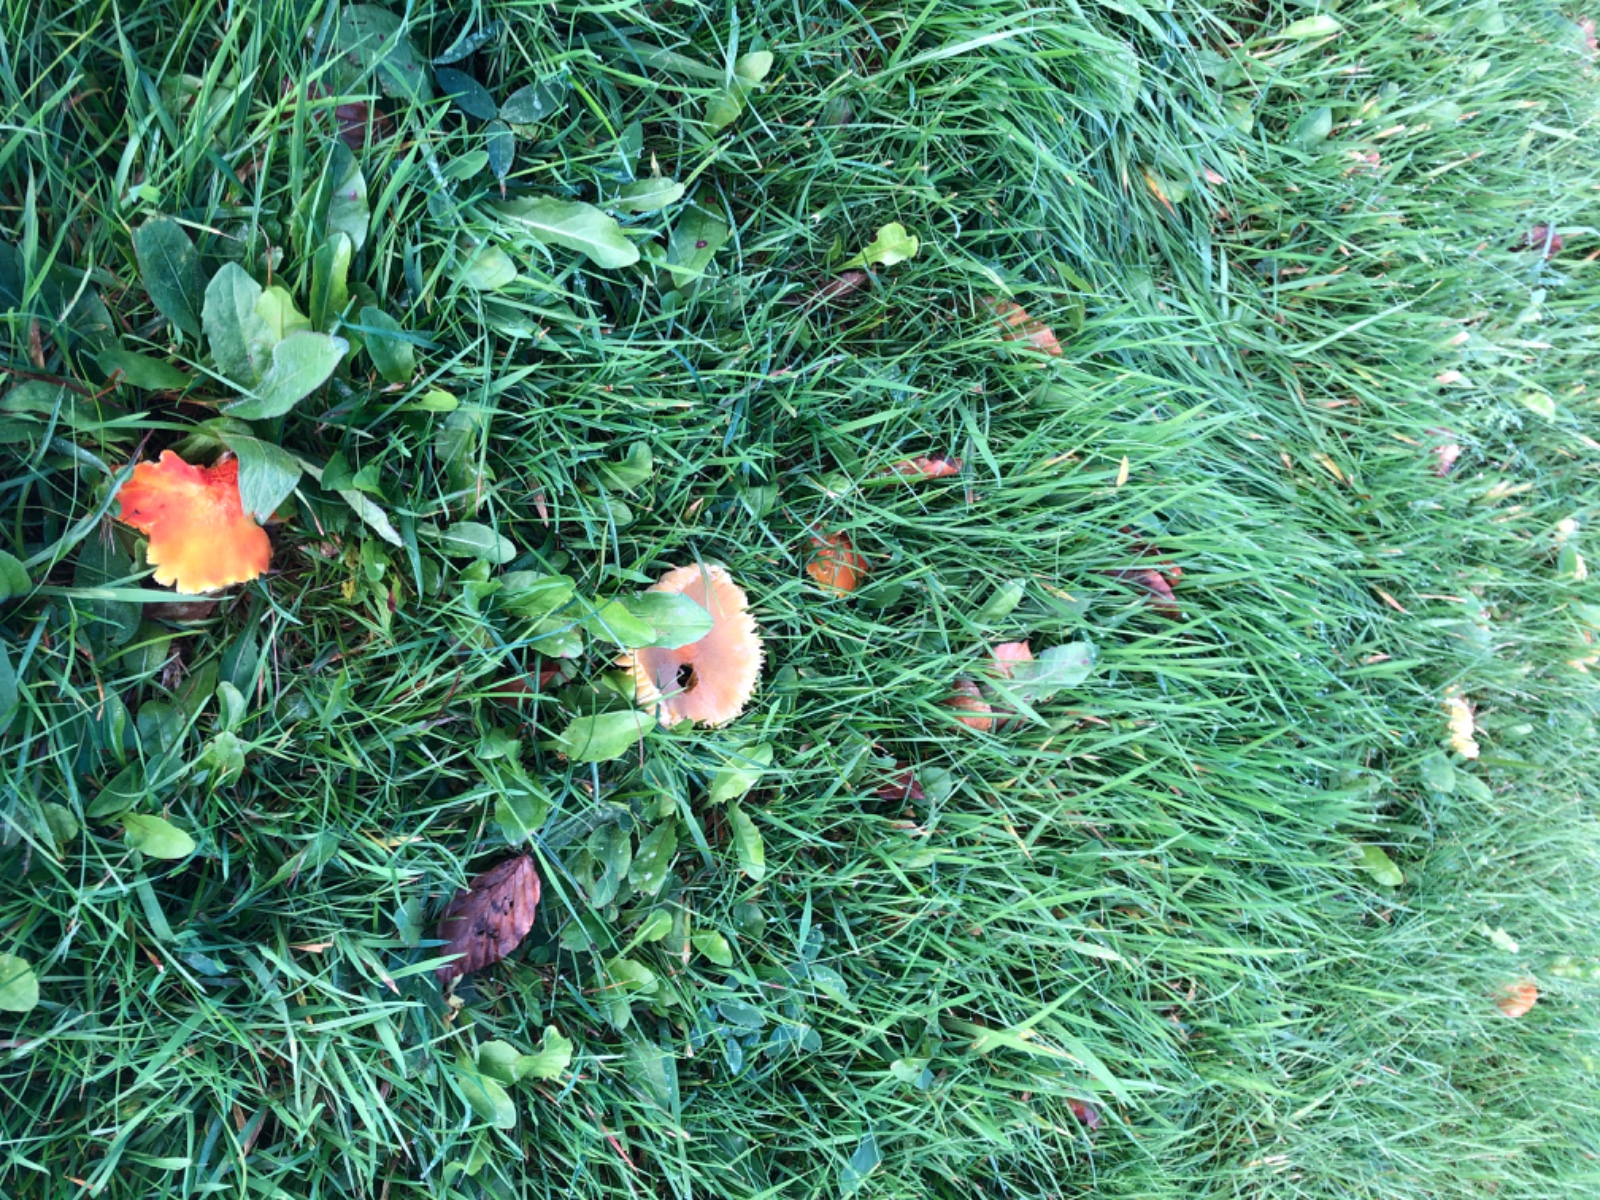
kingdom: Fungi
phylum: Basidiomycota
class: Agaricomycetes
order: Agaricales
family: Hygrophoraceae
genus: Hygrocybe
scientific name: Hygrocybe intermedia
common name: trævlet vokshat
